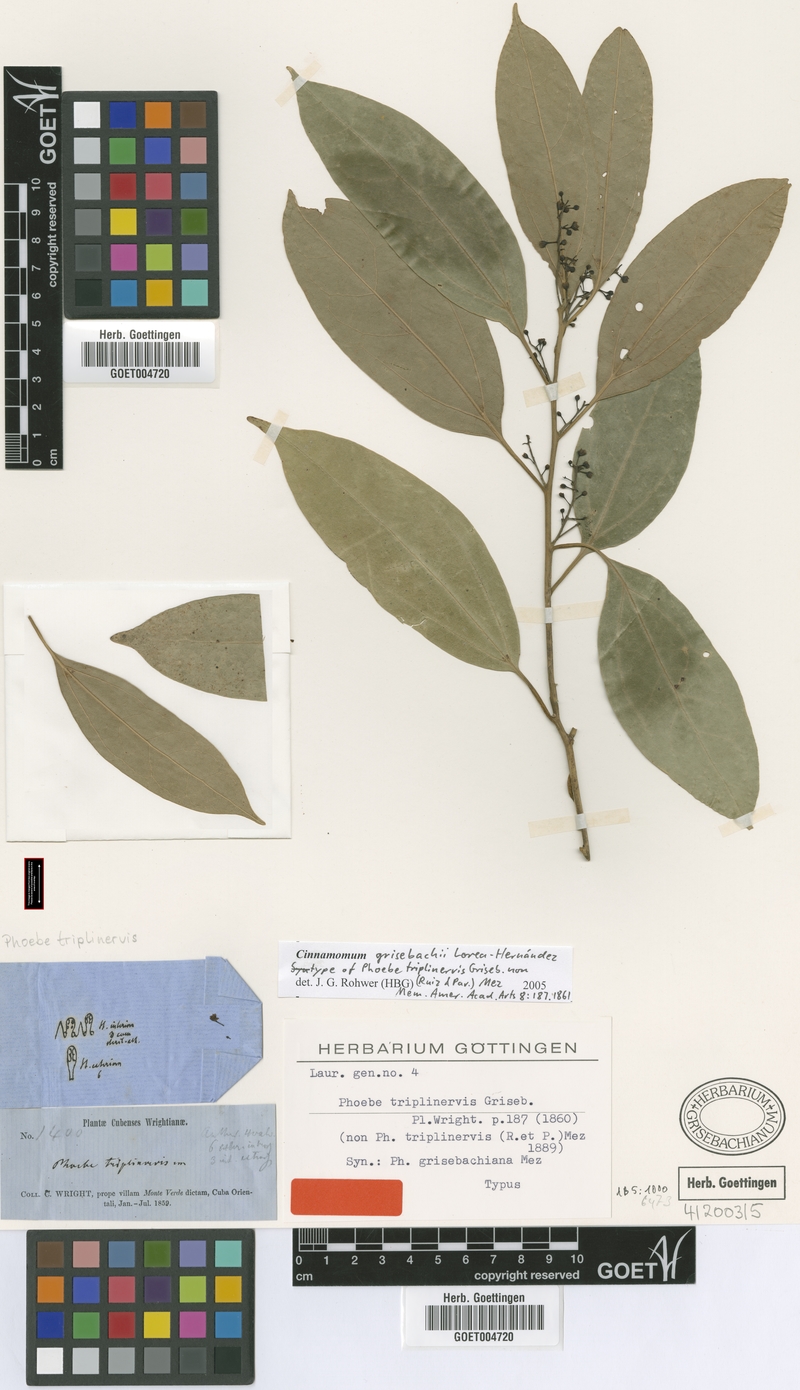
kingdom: Plantae
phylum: Tracheophyta
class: Magnoliopsida
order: Laurales
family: Lauraceae
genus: Aiouea
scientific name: Aiouea grisebachii
